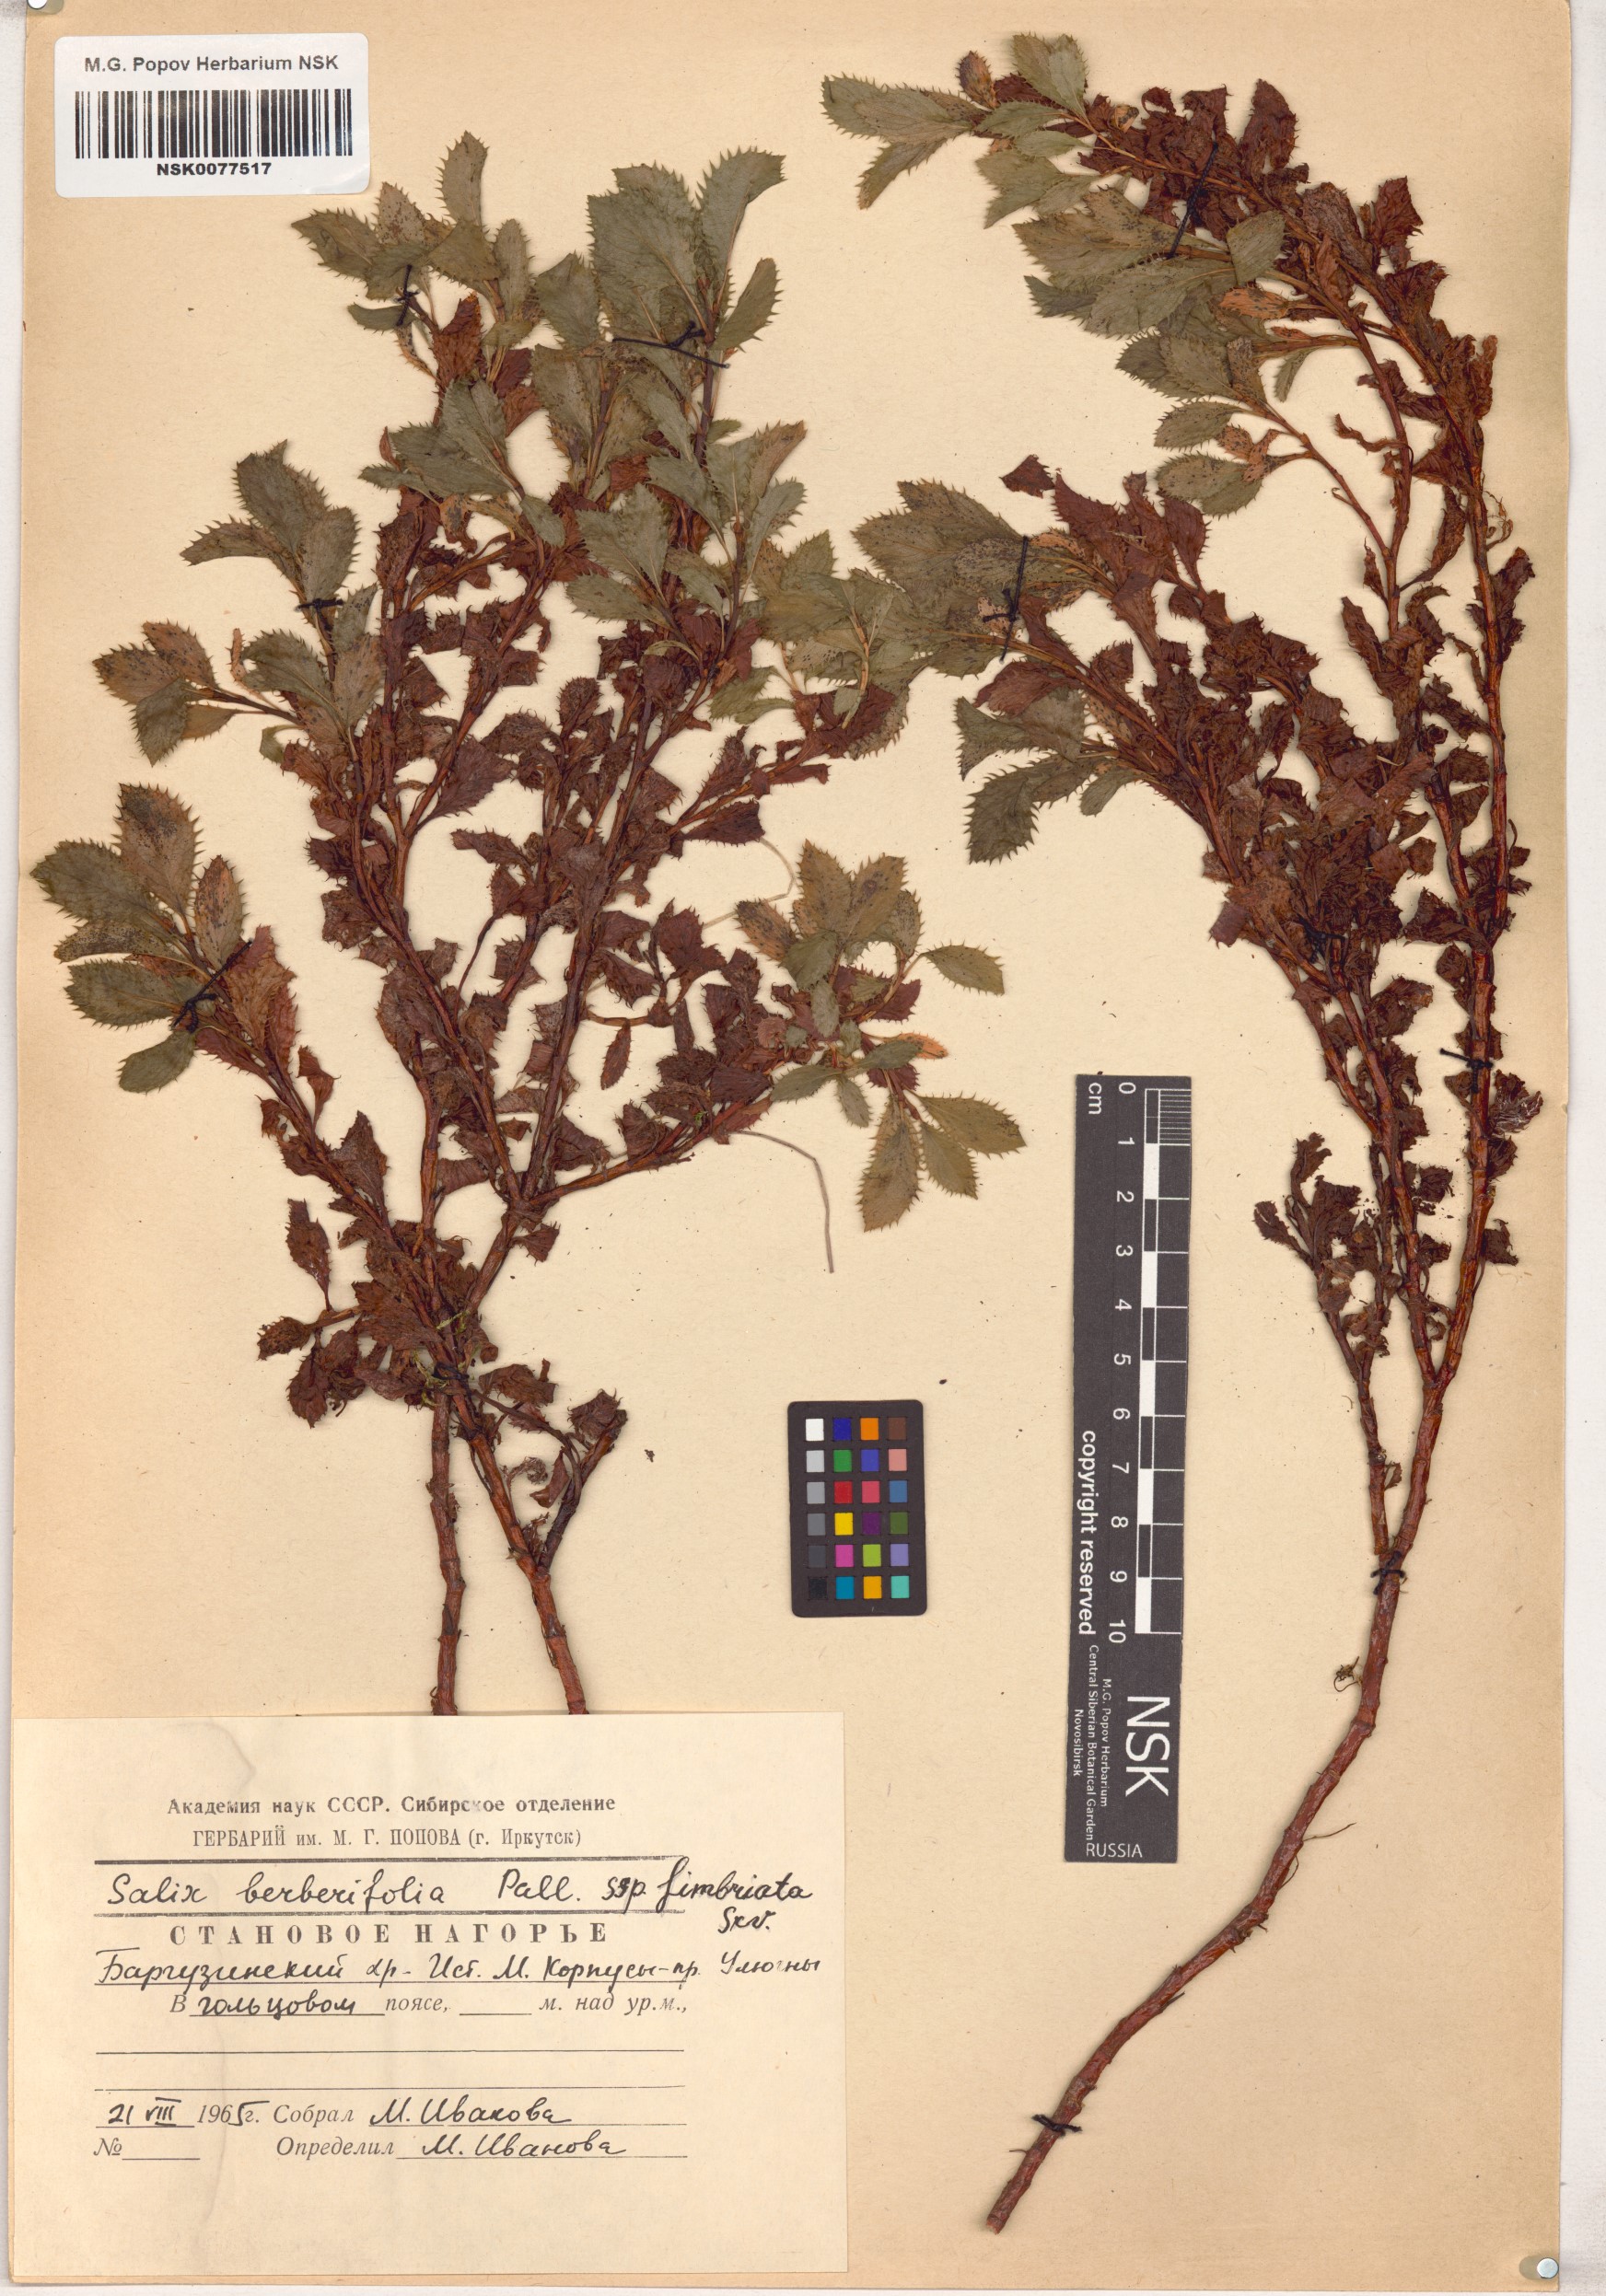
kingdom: Plantae
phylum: Tracheophyta
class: Magnoliopsida
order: Malpighiales
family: Salicaceae
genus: Salix
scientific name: Salix berberifolia
